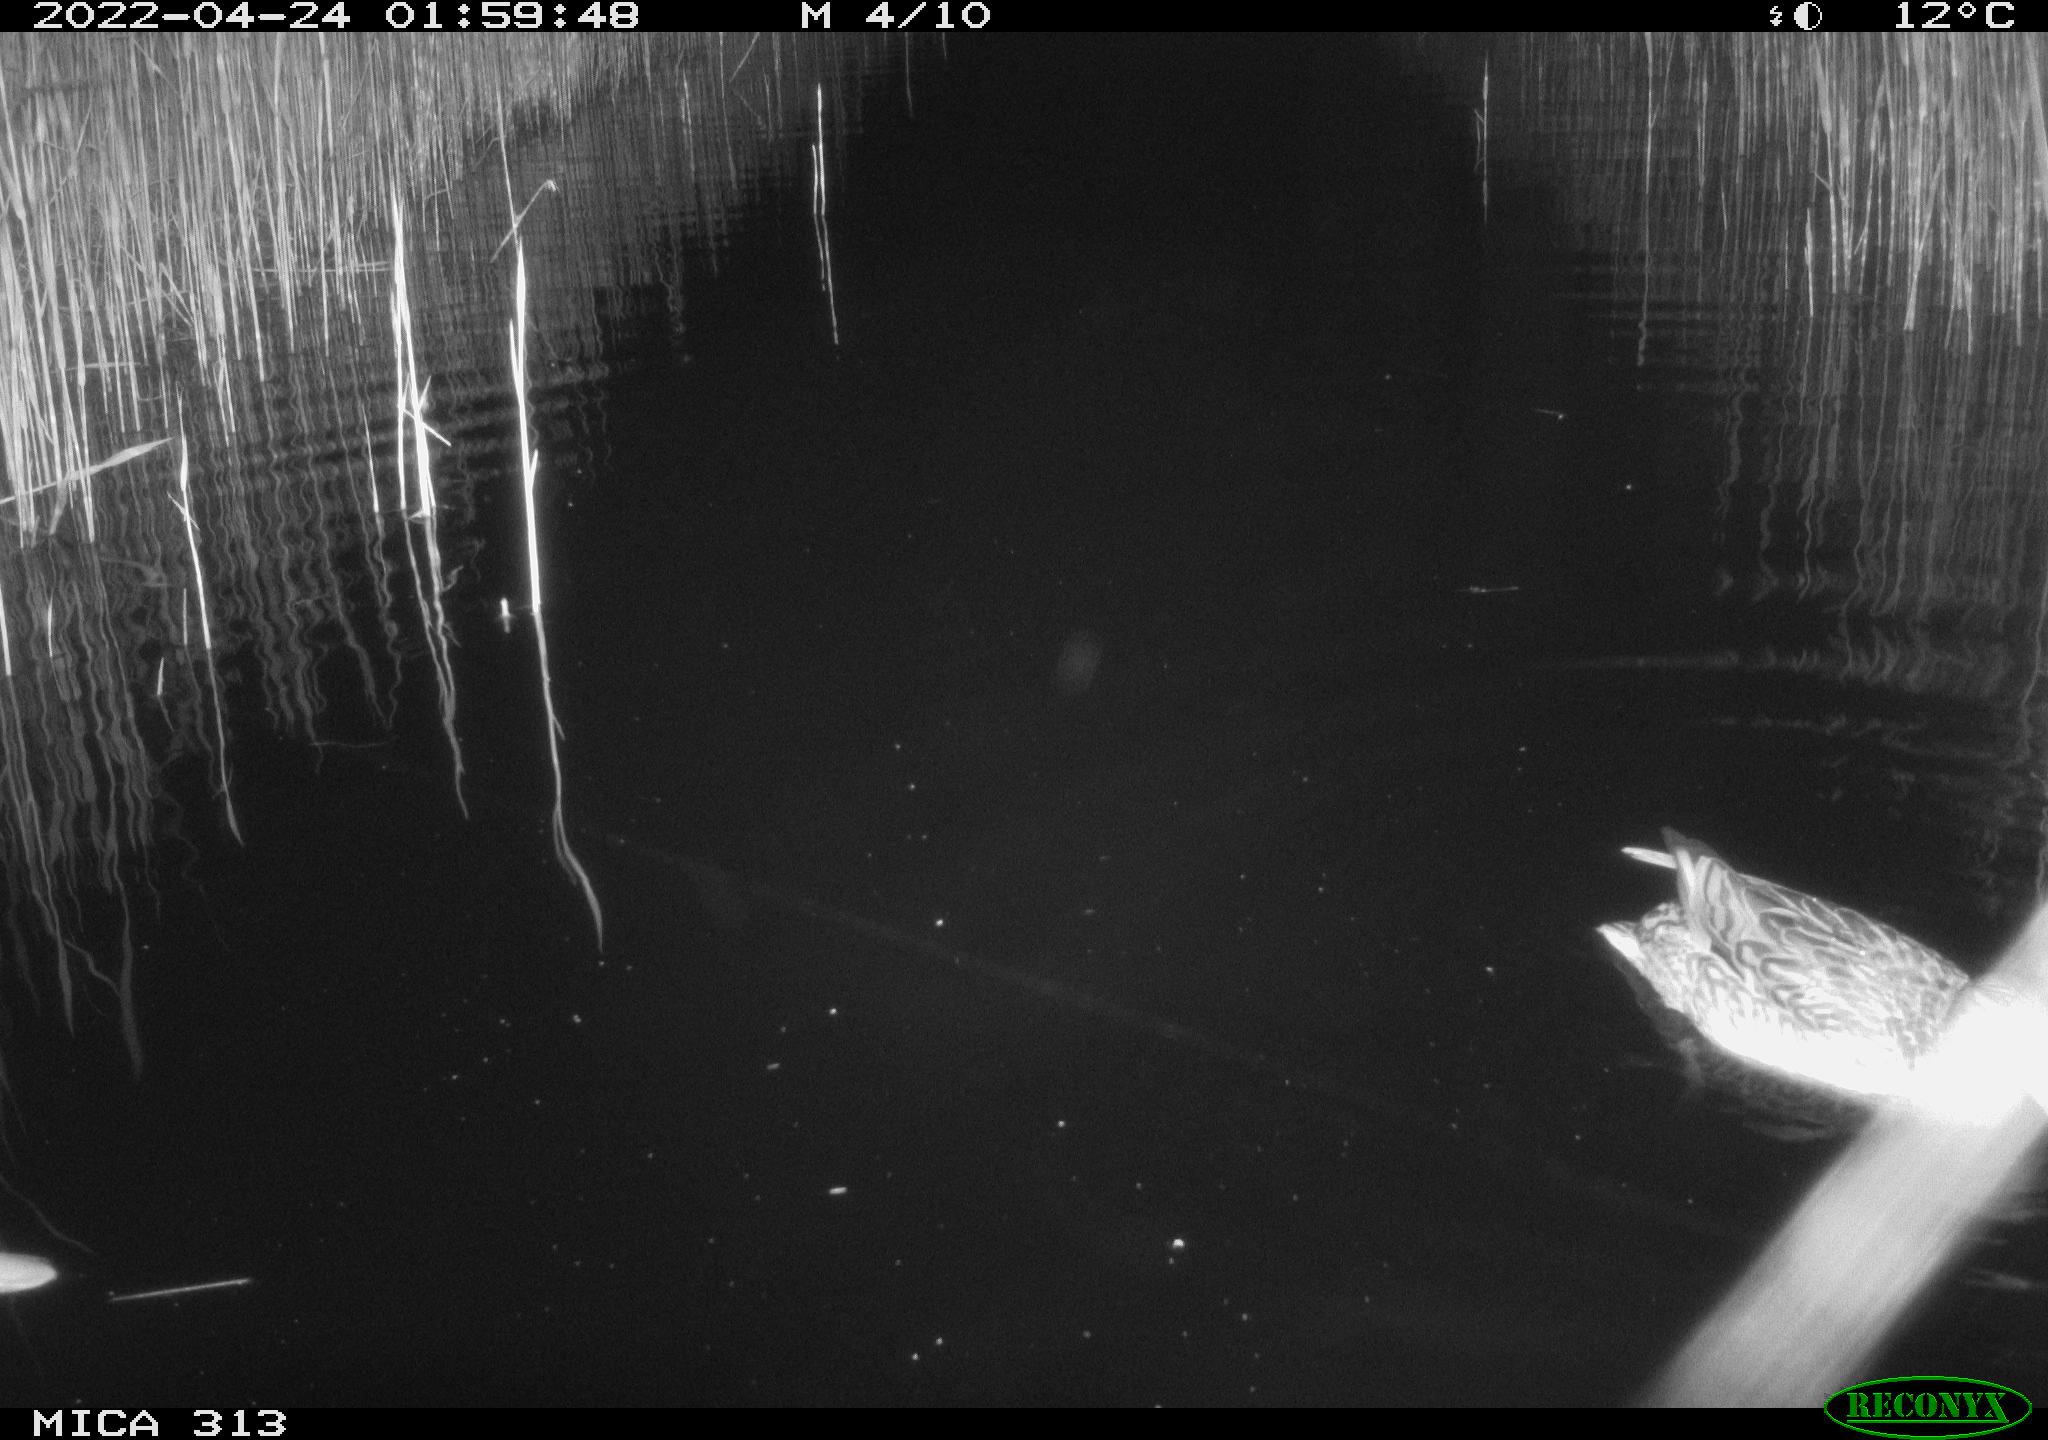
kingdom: Animalia
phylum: Chordata
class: Aves
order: Anseriformes
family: Anatidae
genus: Anas
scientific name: Anas platyrhynchos
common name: Mallard
